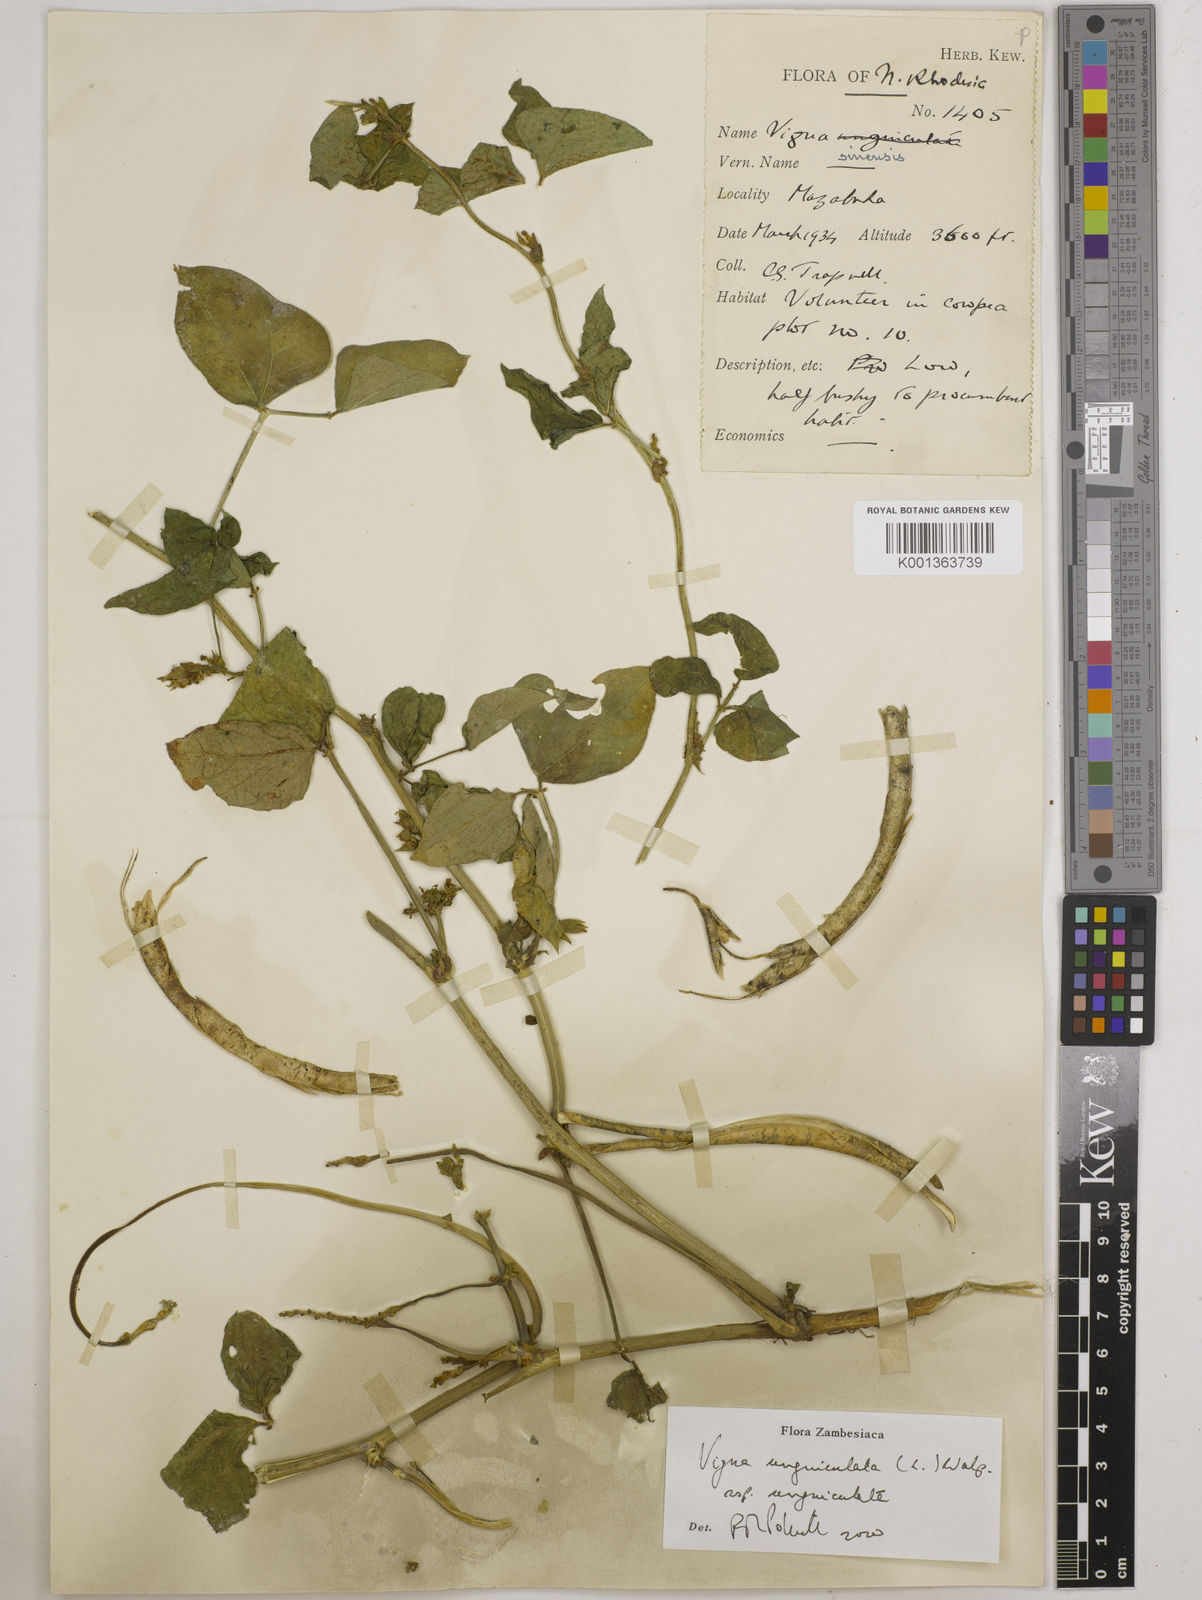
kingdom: Plantae
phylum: Tracheophyta
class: Magnoliopsida
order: Fabales
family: Fabaceae
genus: Vigna
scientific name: Vigna unguiculata
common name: Cowpea
